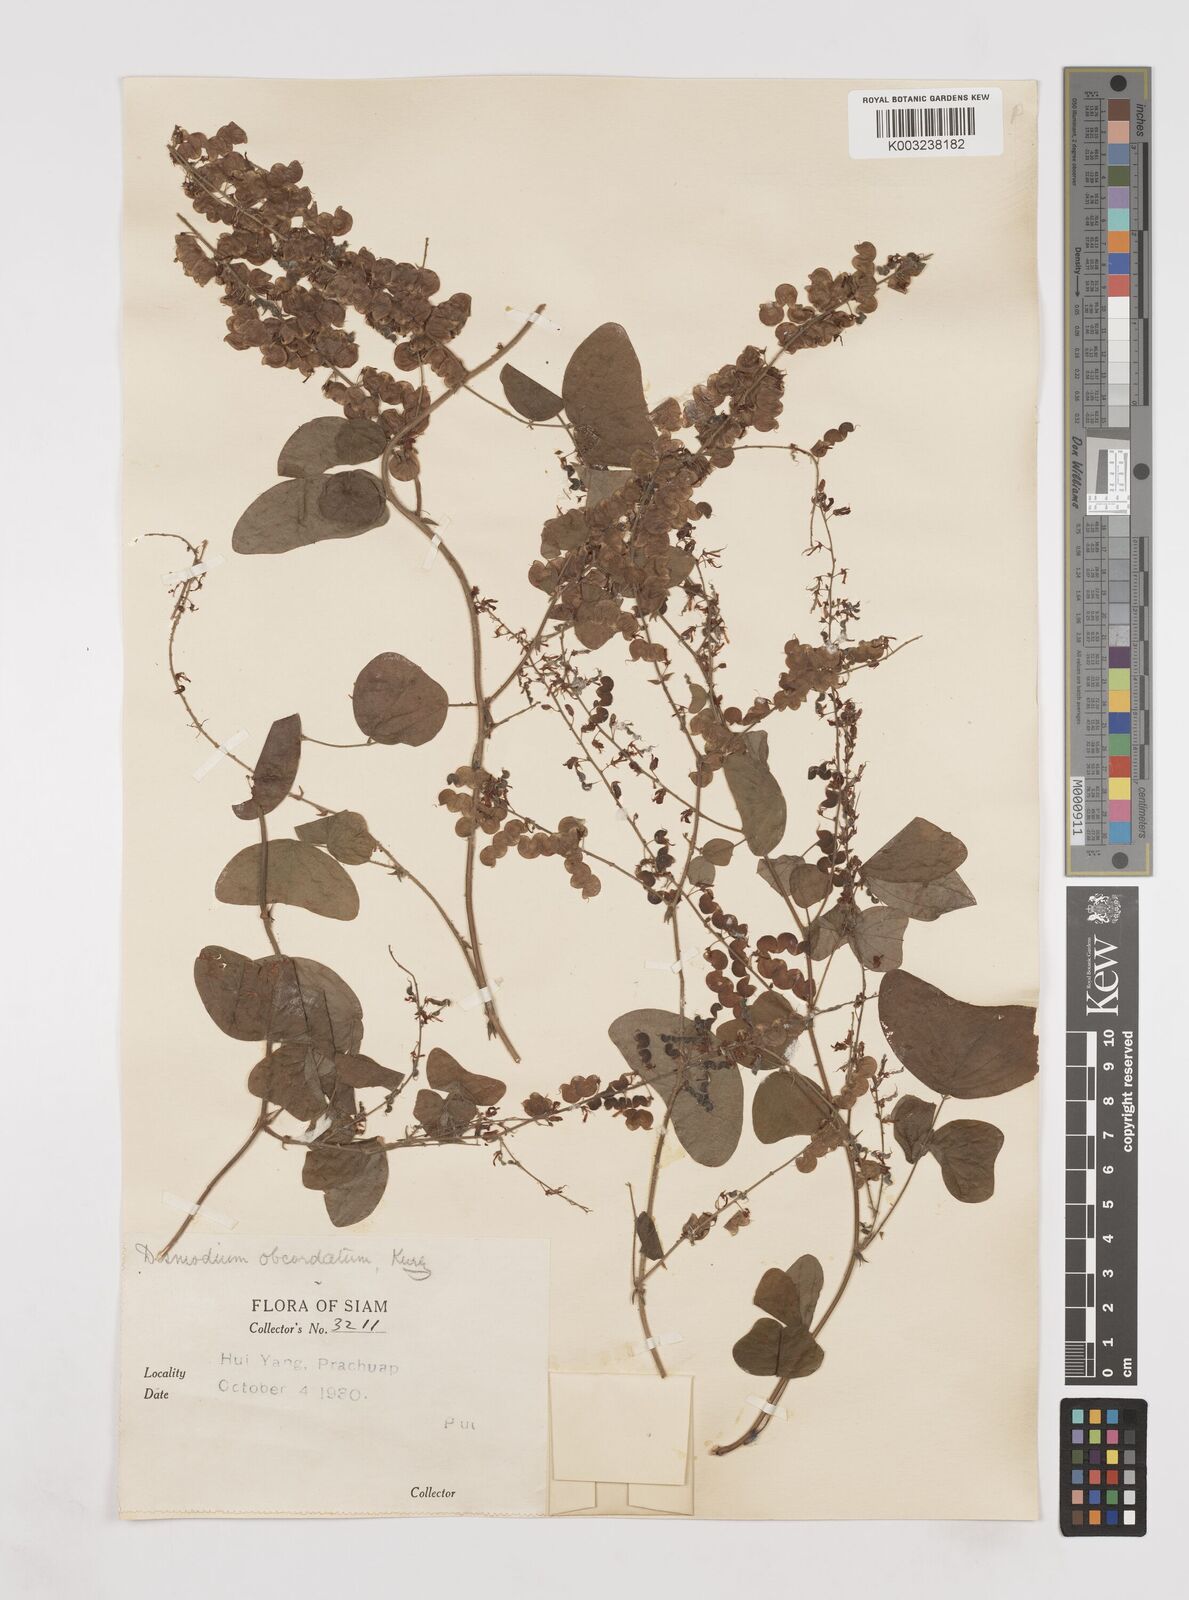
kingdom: Plantae
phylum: Tracheophyta
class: Magnoliopsida
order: Fabales
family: Fabaceae
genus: Hegnera
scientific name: Hegnera obcordata
